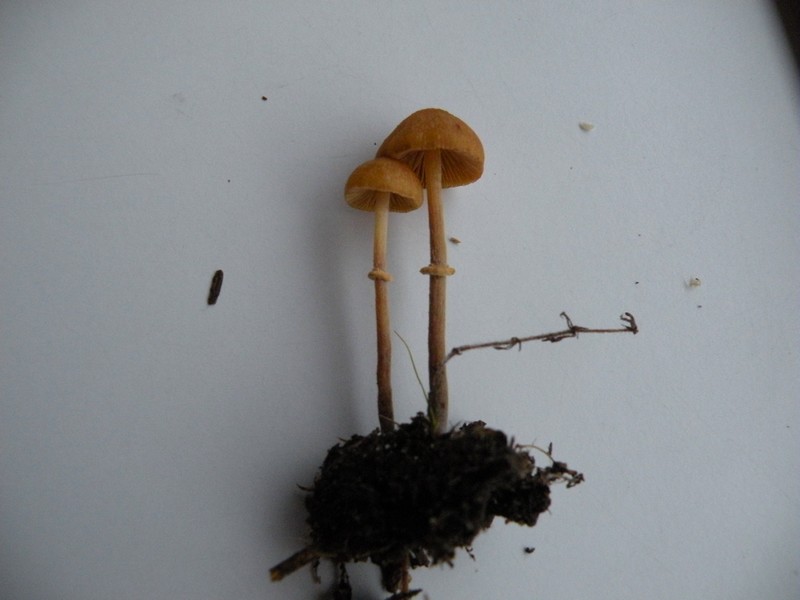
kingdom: Fungi
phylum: Basidiomycota
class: Agaricomycetes
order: Agaricales
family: Bolbitiaceae
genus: Pholiotina
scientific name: Pholiotina teneroides
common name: tosporet dansehat
